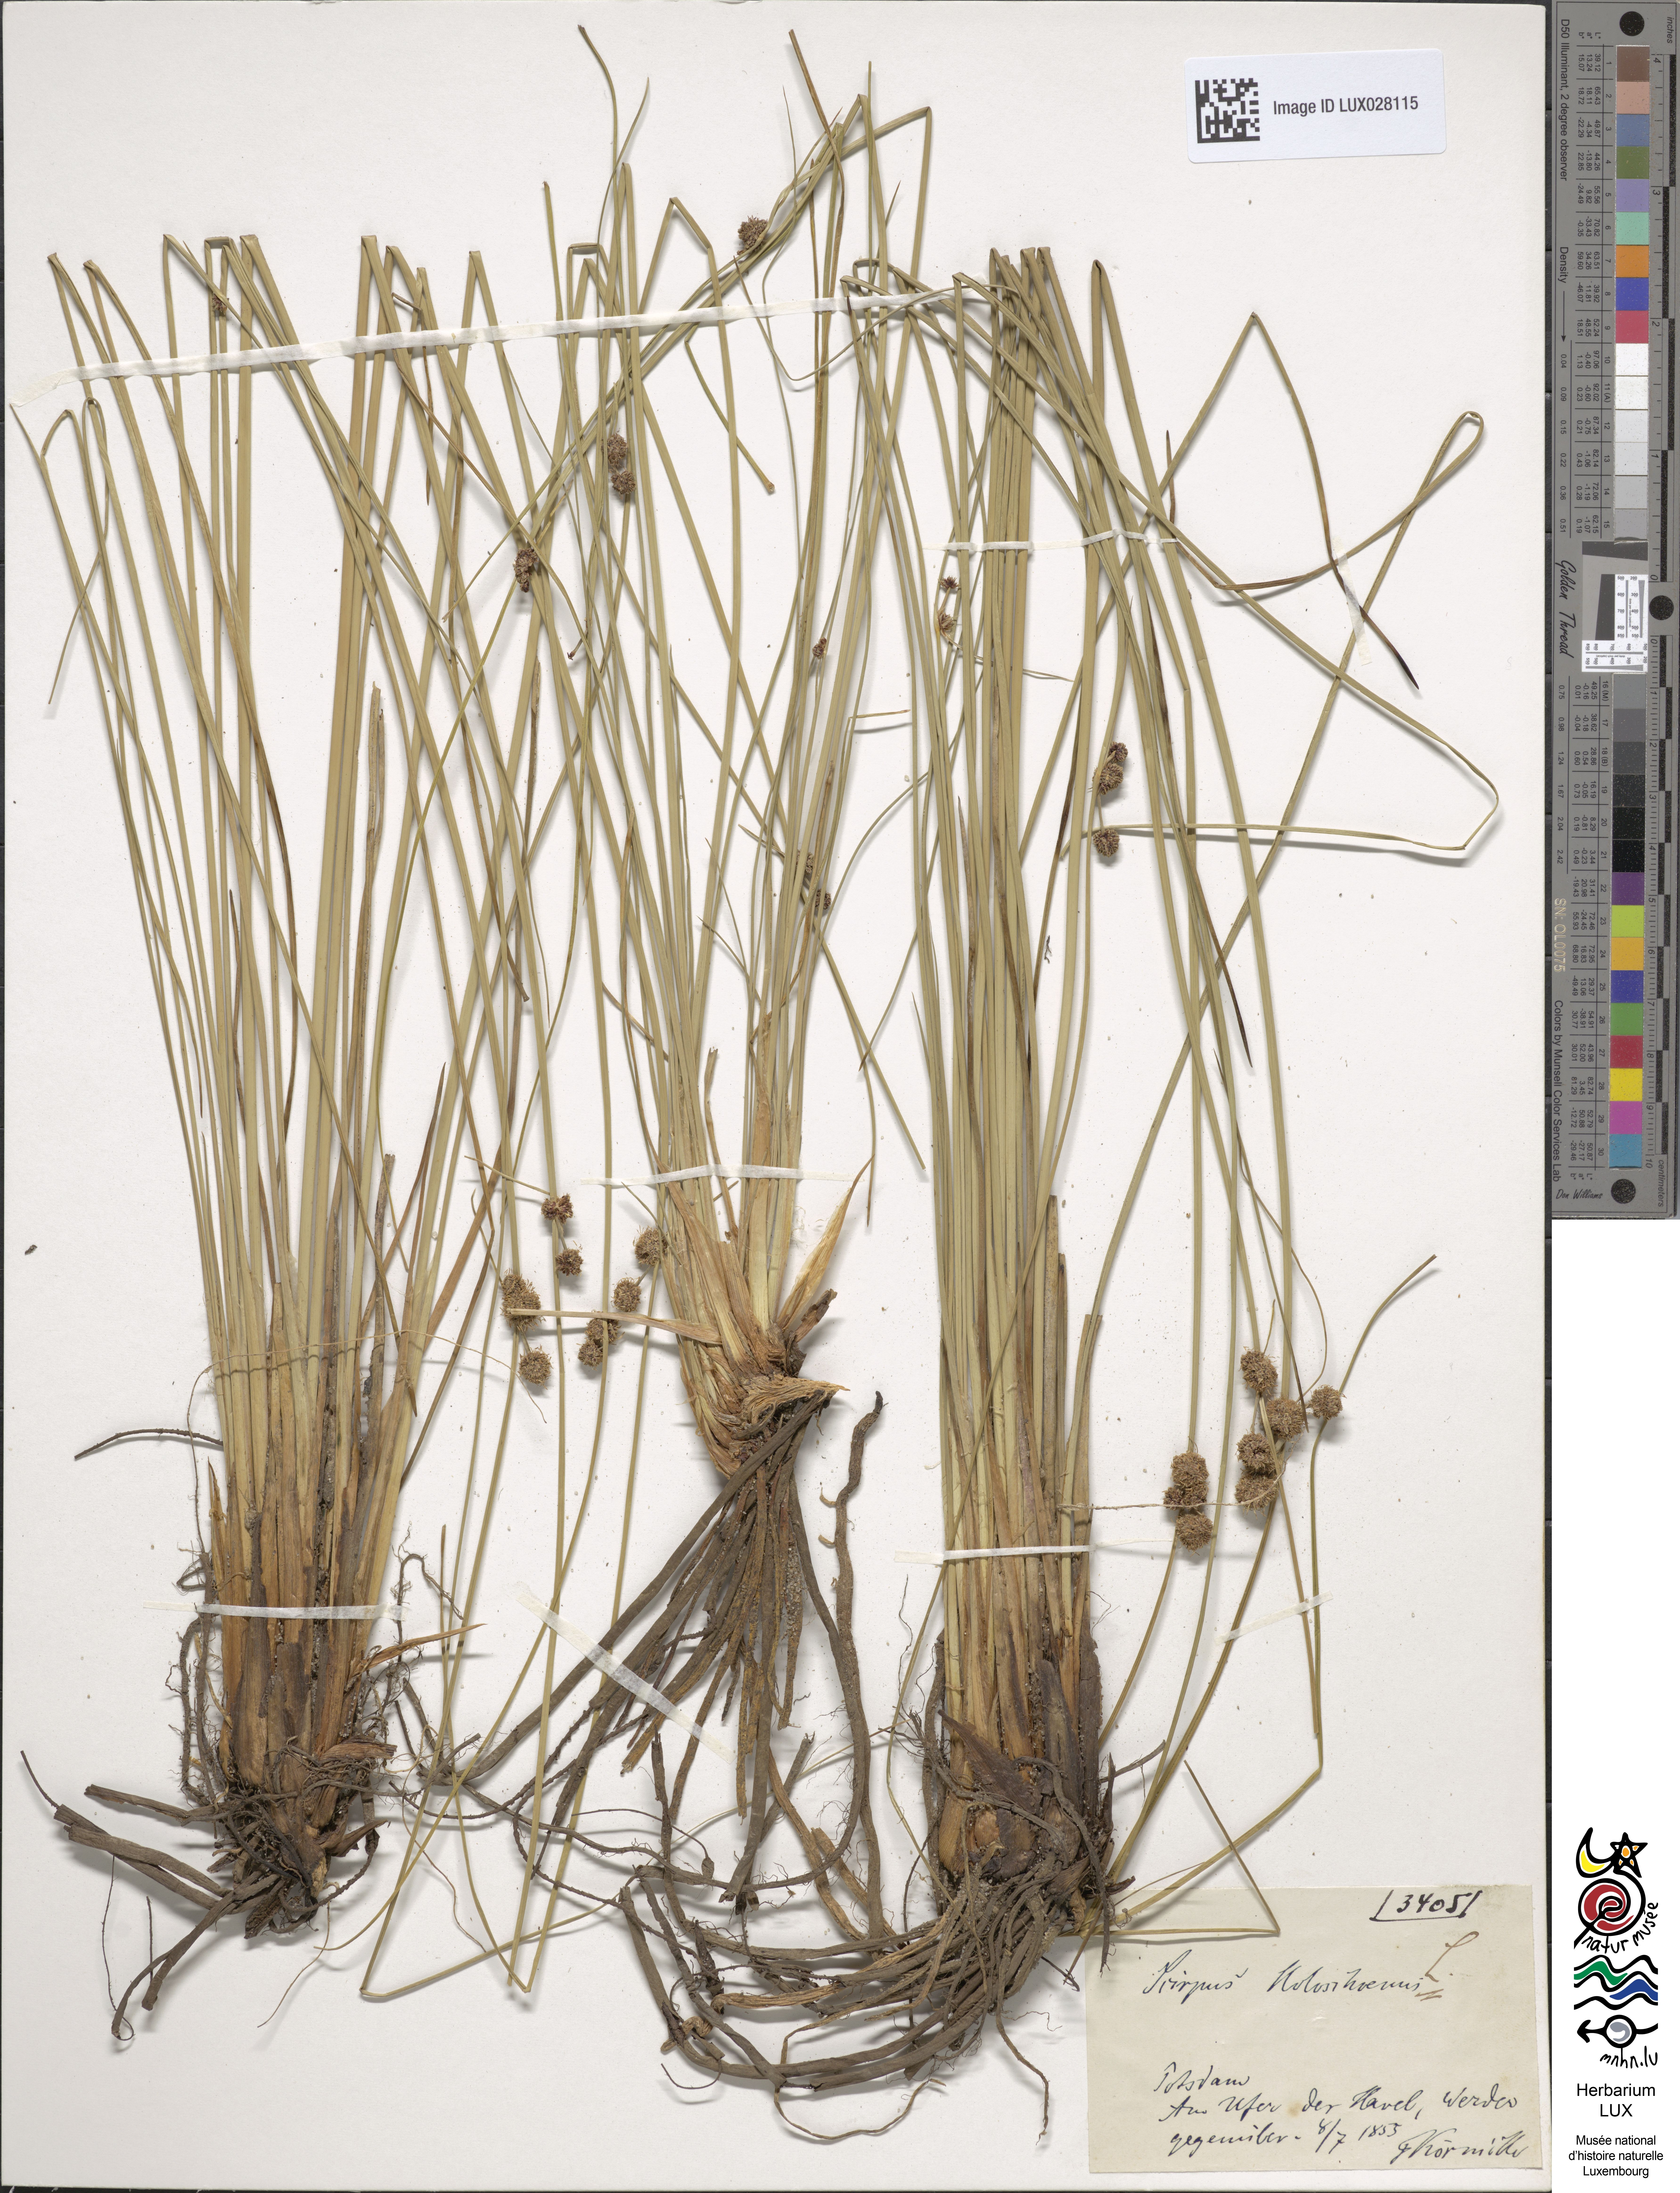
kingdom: Plantae
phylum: Tracheophyta
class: Liliopsida
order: Poales
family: Cyperaceae
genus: Scirpoides
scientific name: Scirpoides holoschoenus
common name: Round-headed club-rush
